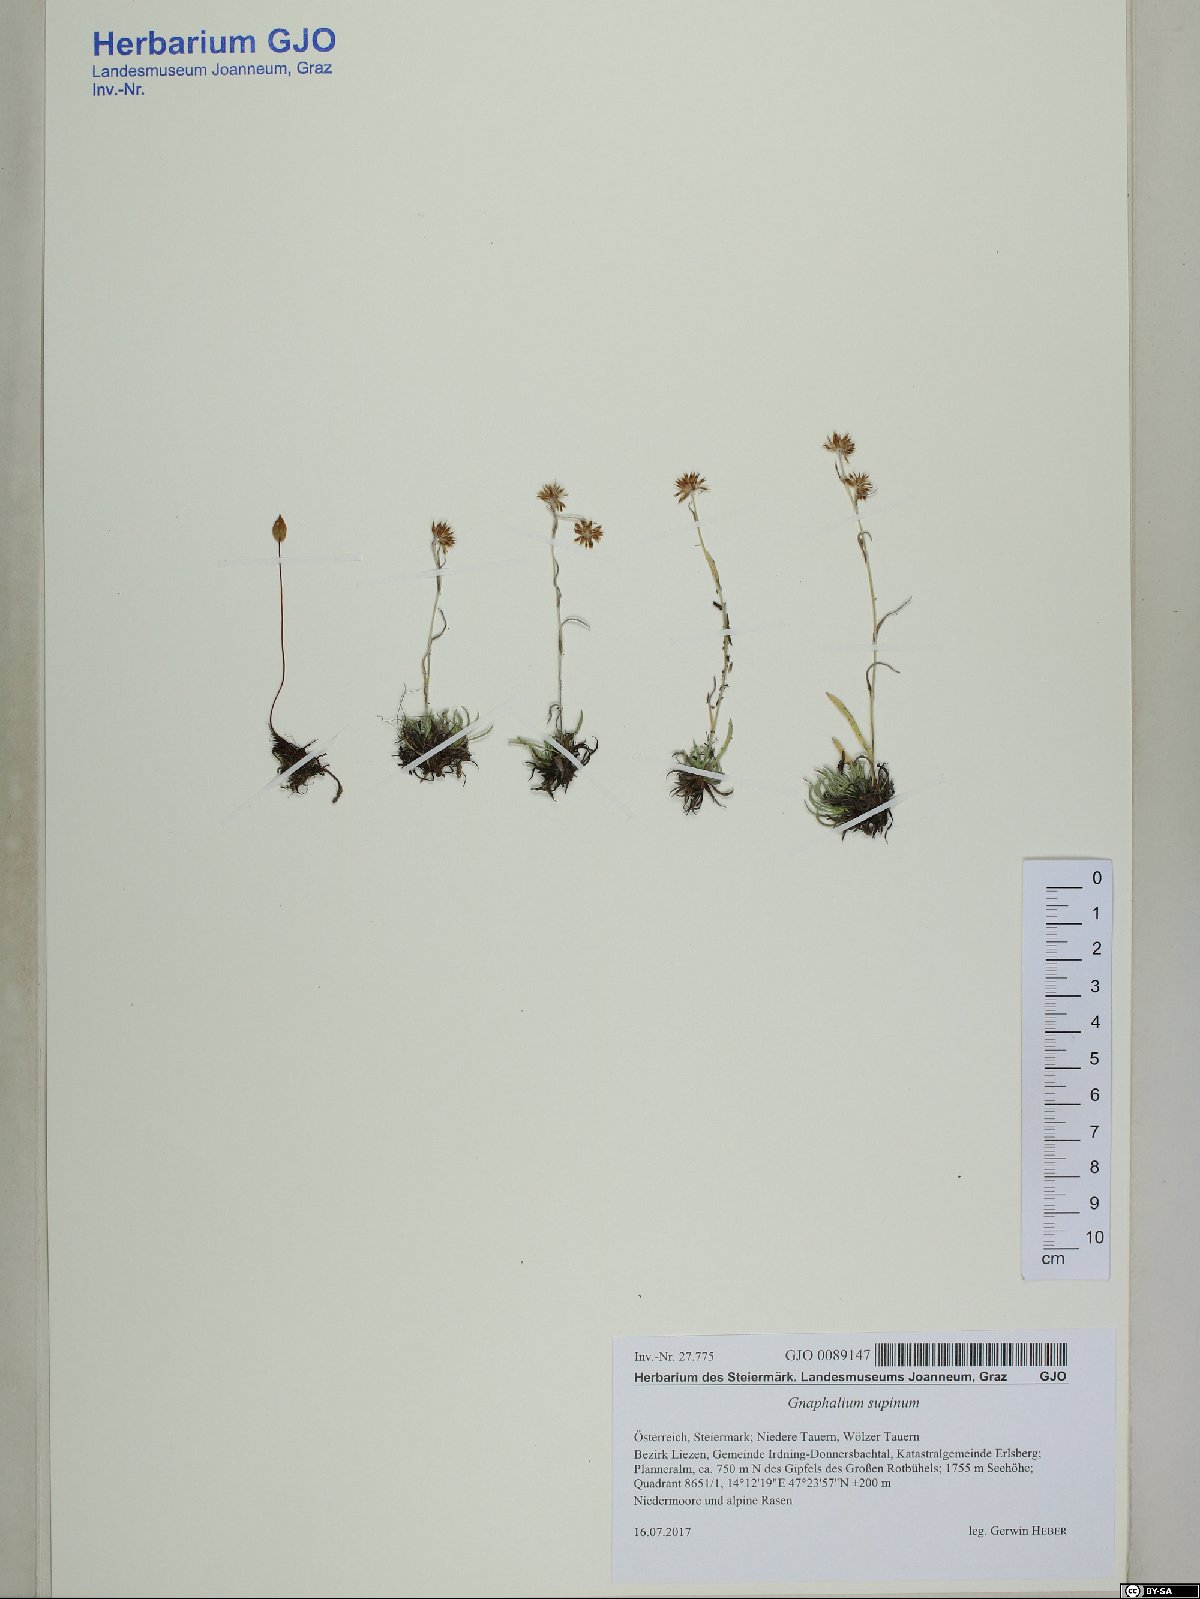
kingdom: Plantae
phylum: Tracheophyta
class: Magnoliopsida
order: Asterales
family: Asteraceae
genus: Omalotheca
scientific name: Omalotheca supina
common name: Alpine arctic-cudweed
